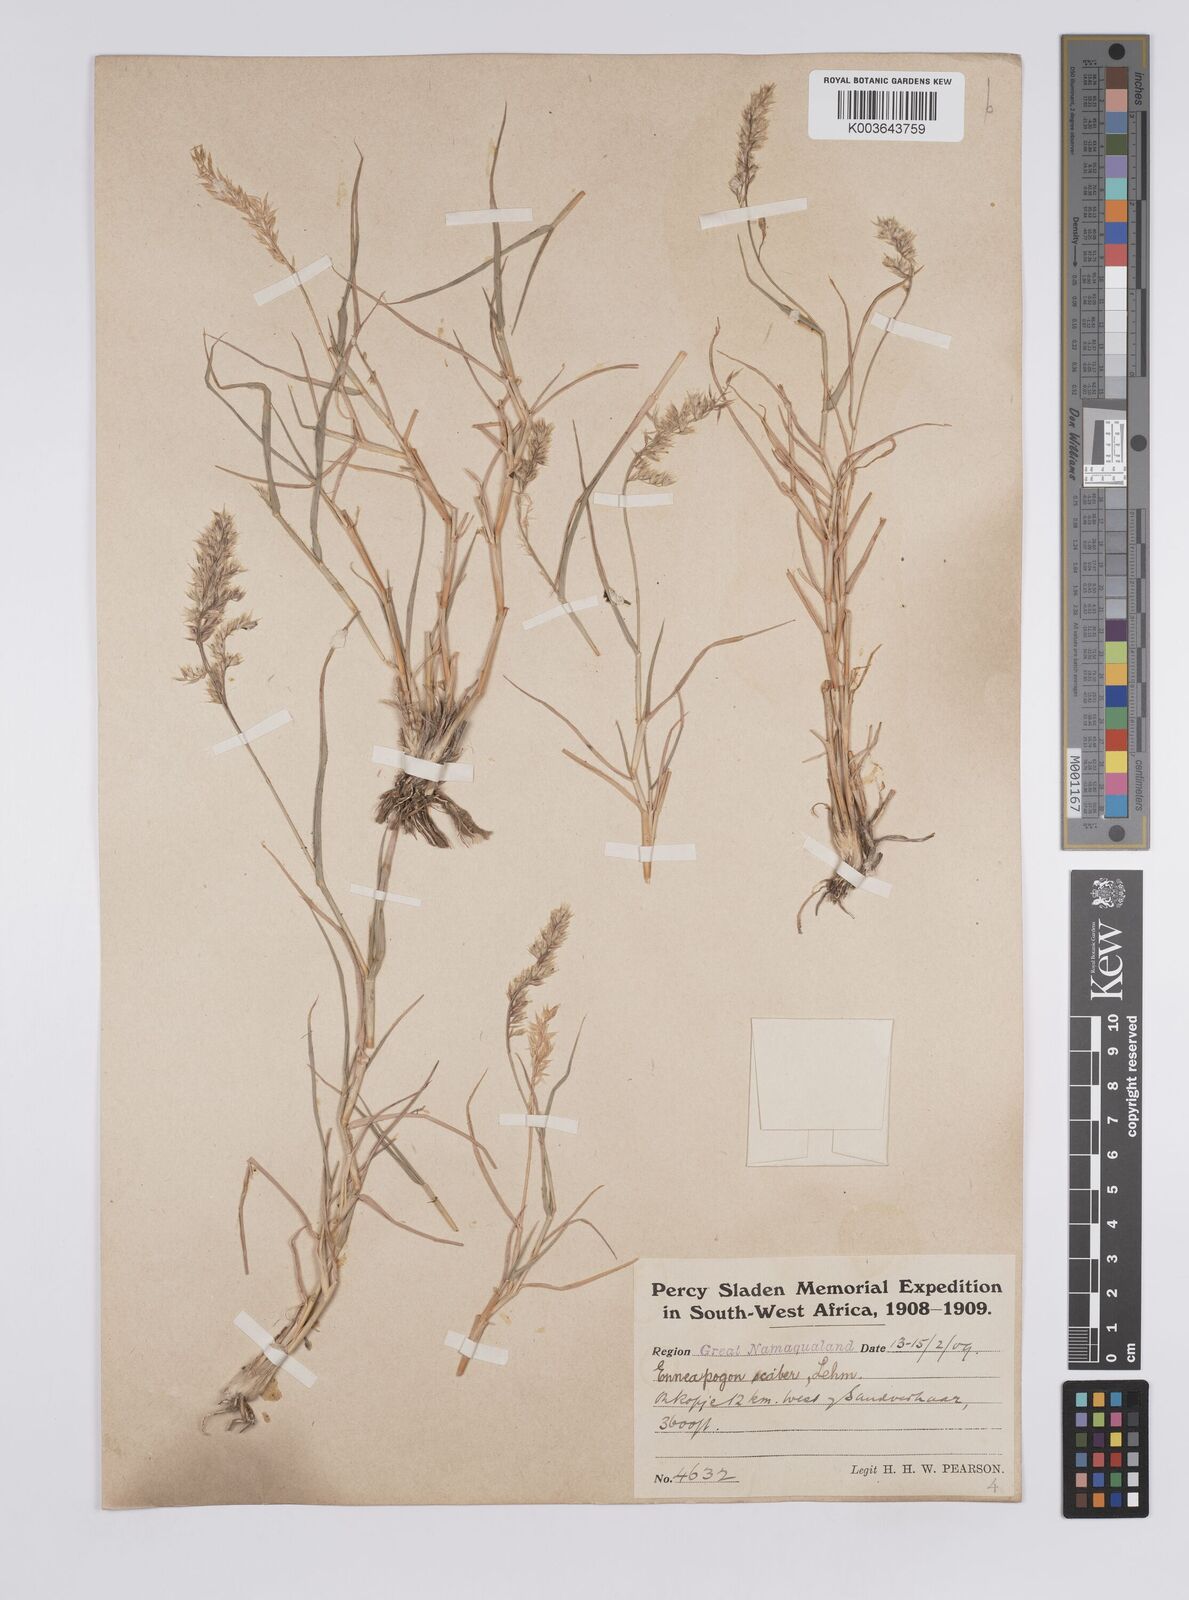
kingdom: Plantae
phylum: Tracheophyta
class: Liliopsida
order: Poales
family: Poaceae
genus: Enneapogon
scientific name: Enneapogon scaber
